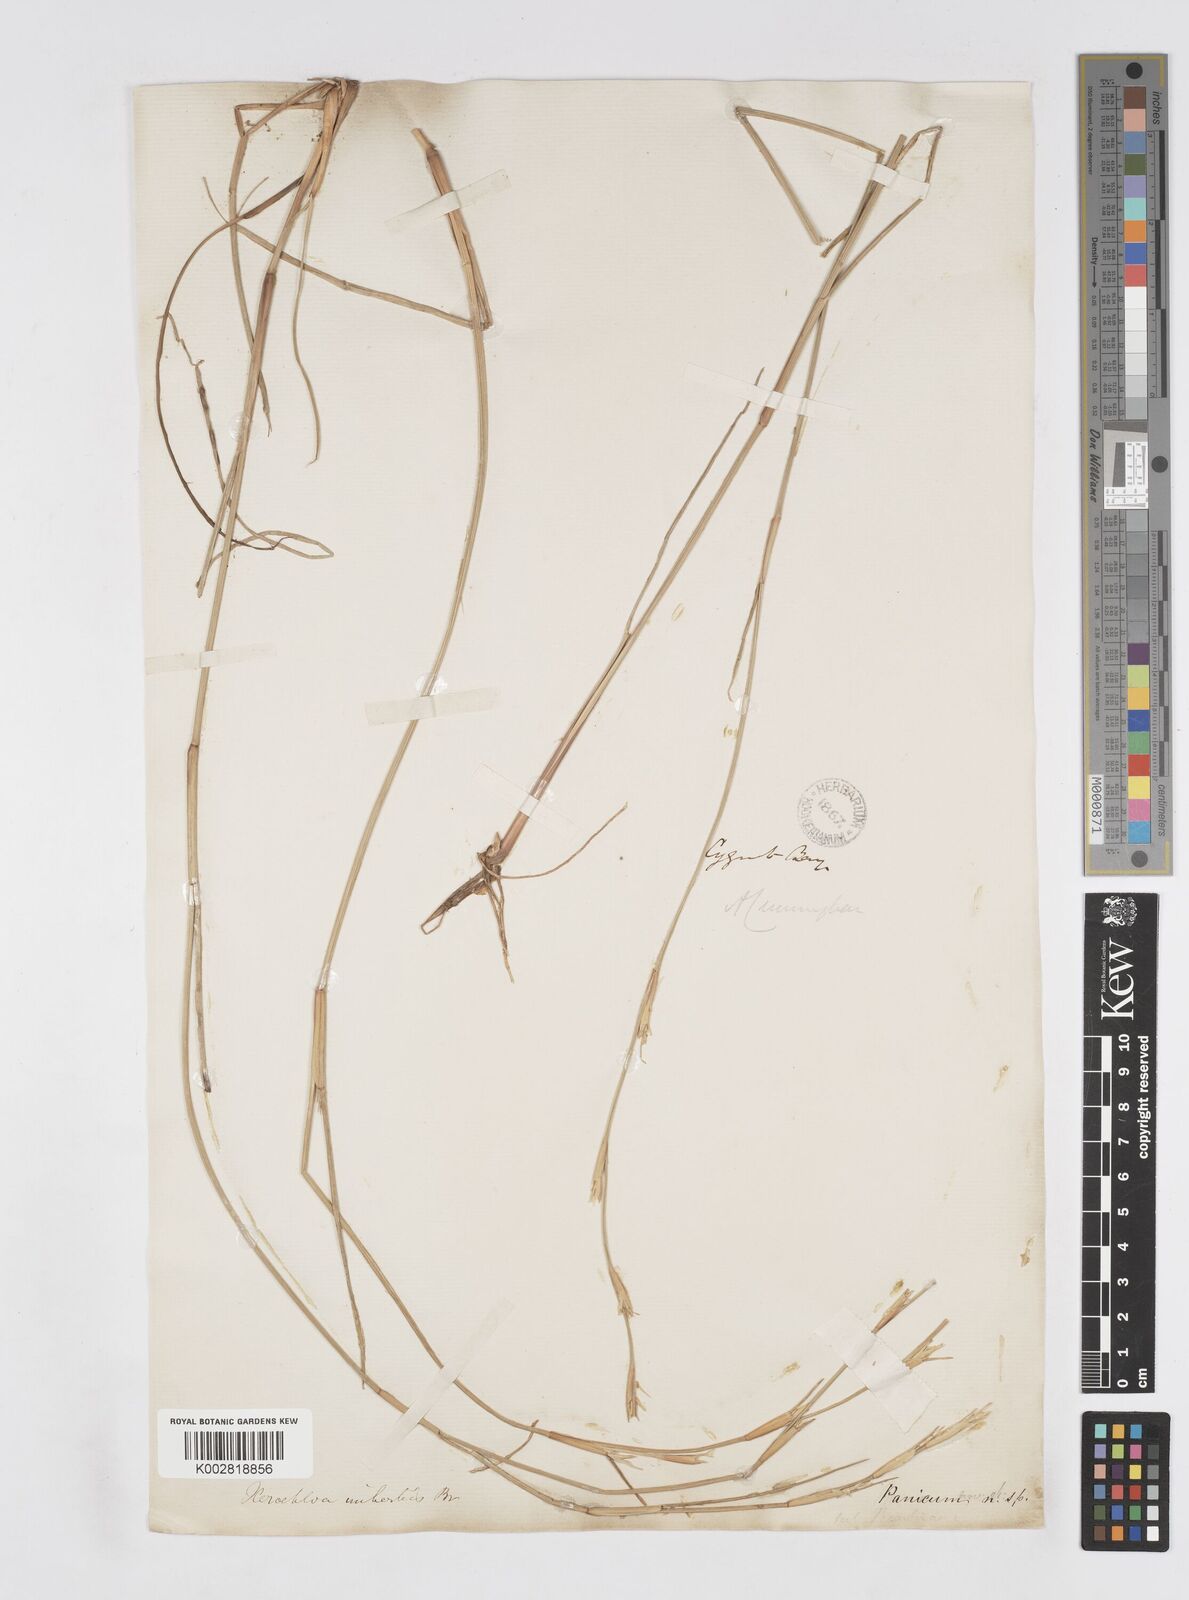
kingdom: Plantae
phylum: Tracheophyta
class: Liliopsida
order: Poales
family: Poaceae
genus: Xerochloa
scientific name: Xerochloa imberbis
